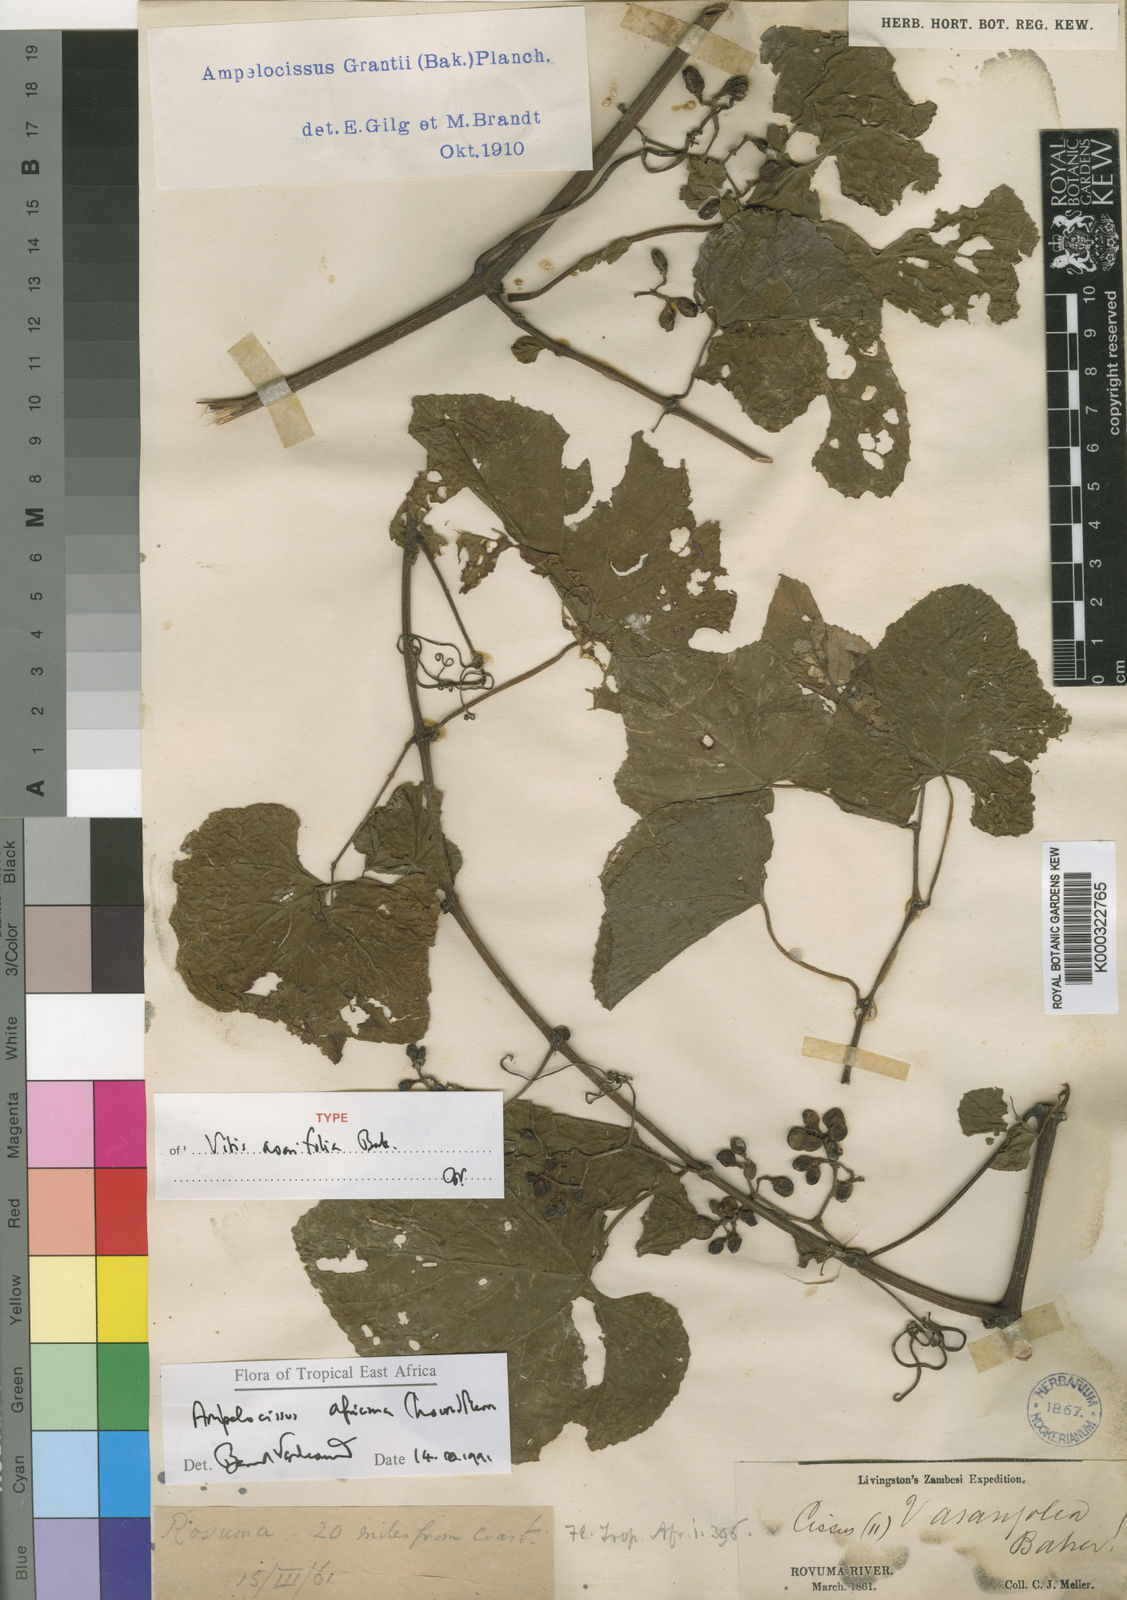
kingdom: Plantae
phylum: Tracheophyta
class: Magnoliopsida
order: Vitales
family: Vitaceae
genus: Ampelocissus
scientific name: Ampelocissus africana
